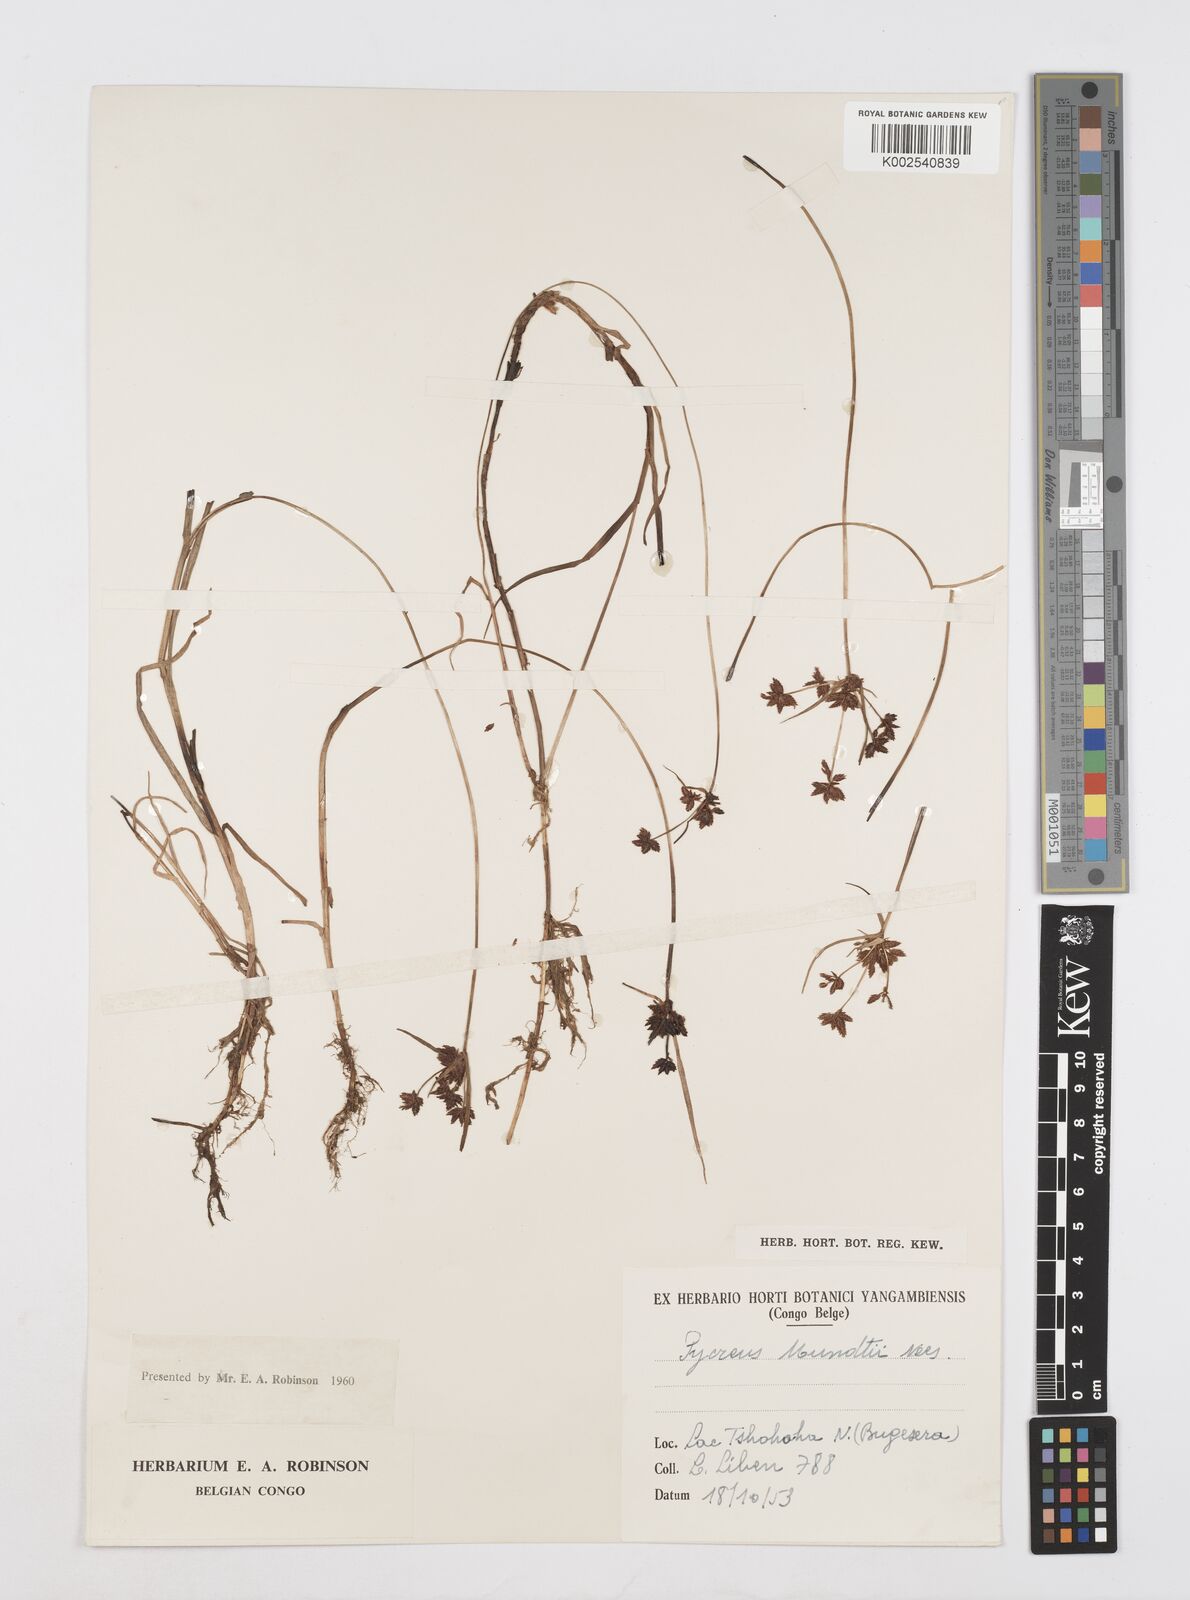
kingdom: Plantae
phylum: Tracheophyta
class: Liliopsida
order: Poales
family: Cyperaceae
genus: Cyperus
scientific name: Cyperus mundii
